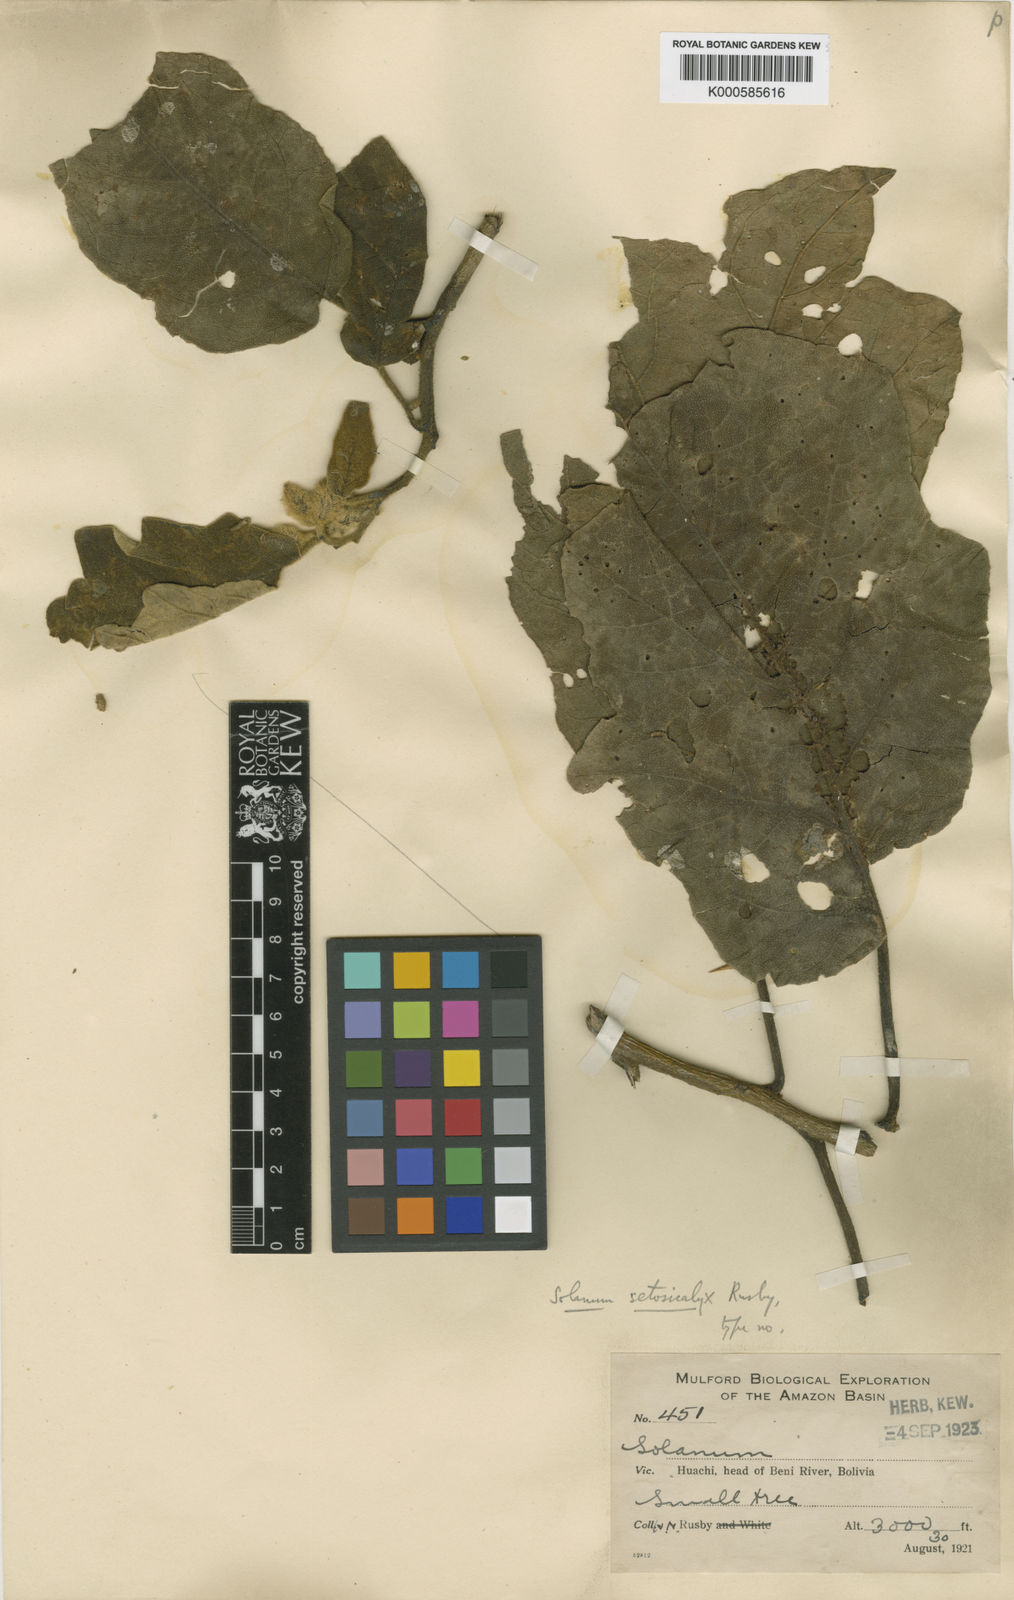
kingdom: Plantae
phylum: Tracheophyta
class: Magnoliopsida
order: Solanales
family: Solanaceae
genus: Solanum
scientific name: Solanum wrightii
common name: Brazilian potato-tree
